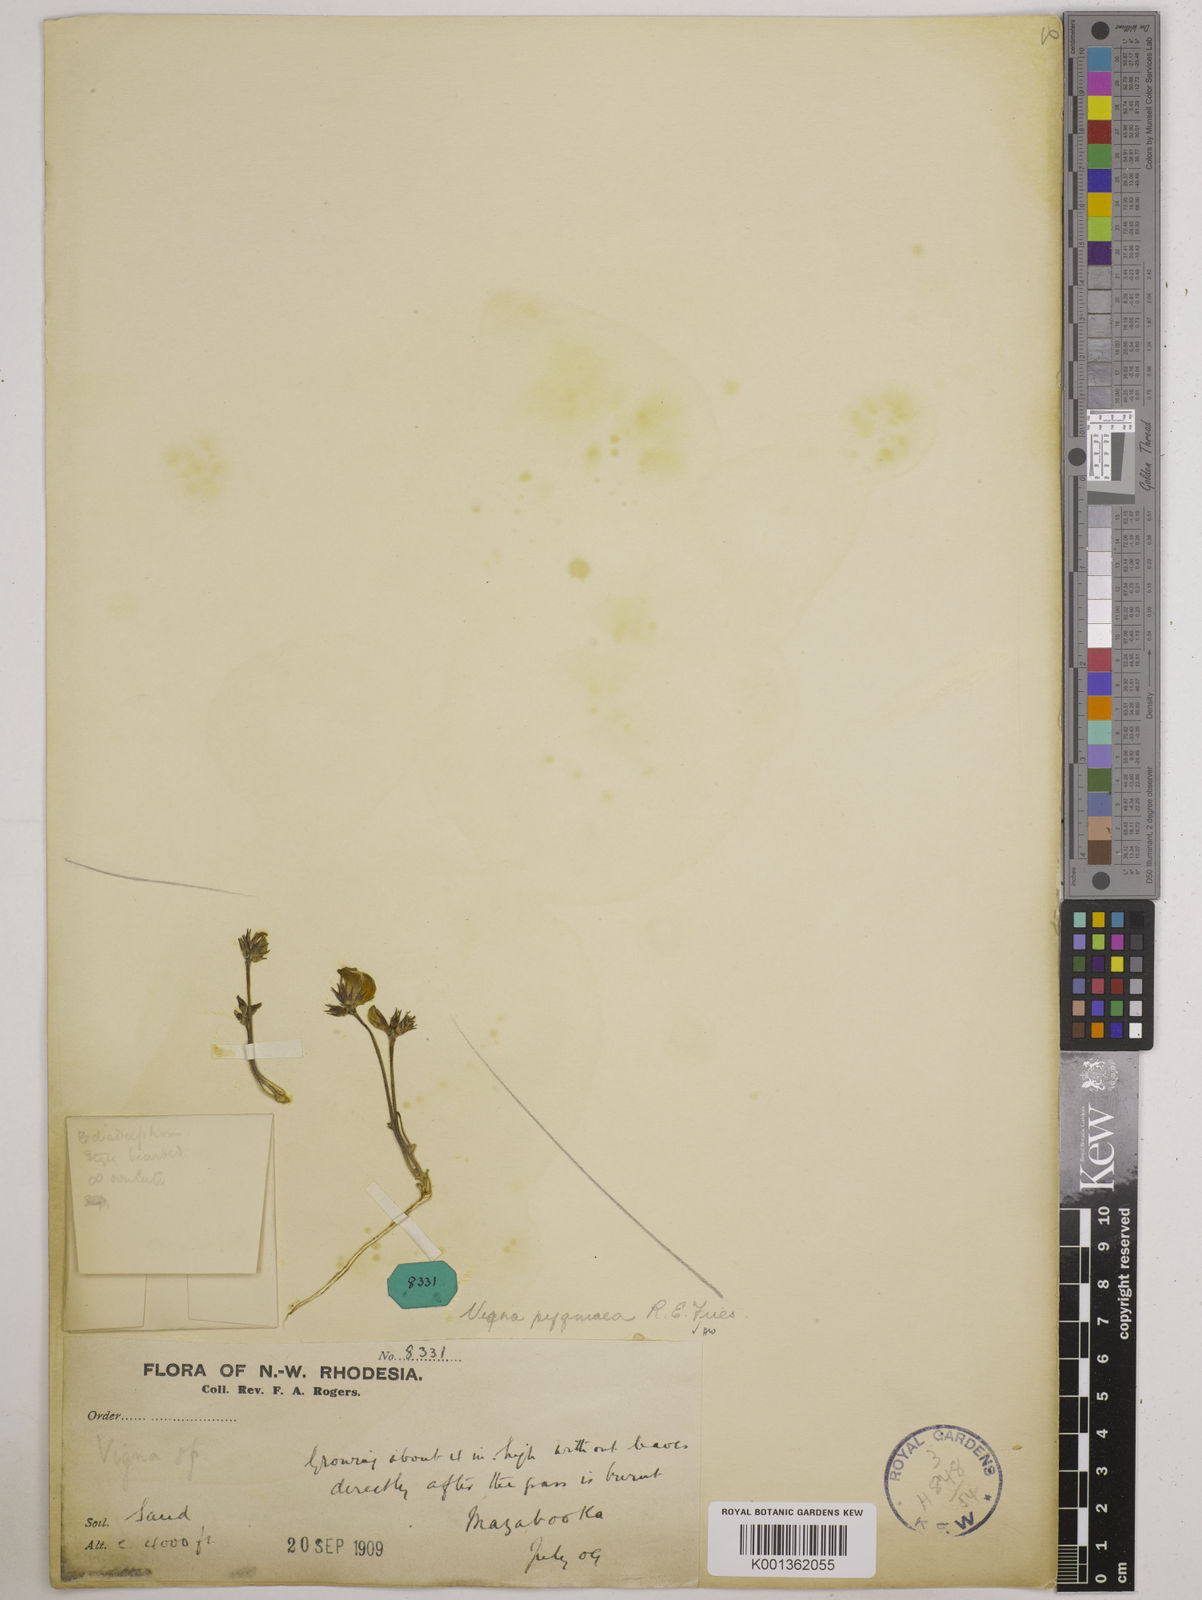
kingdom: Plantae
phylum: Tracheophyta
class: Magnoliopsida
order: Fabales
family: Fabaceae
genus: Vigna
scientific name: Vigna pygmaea
